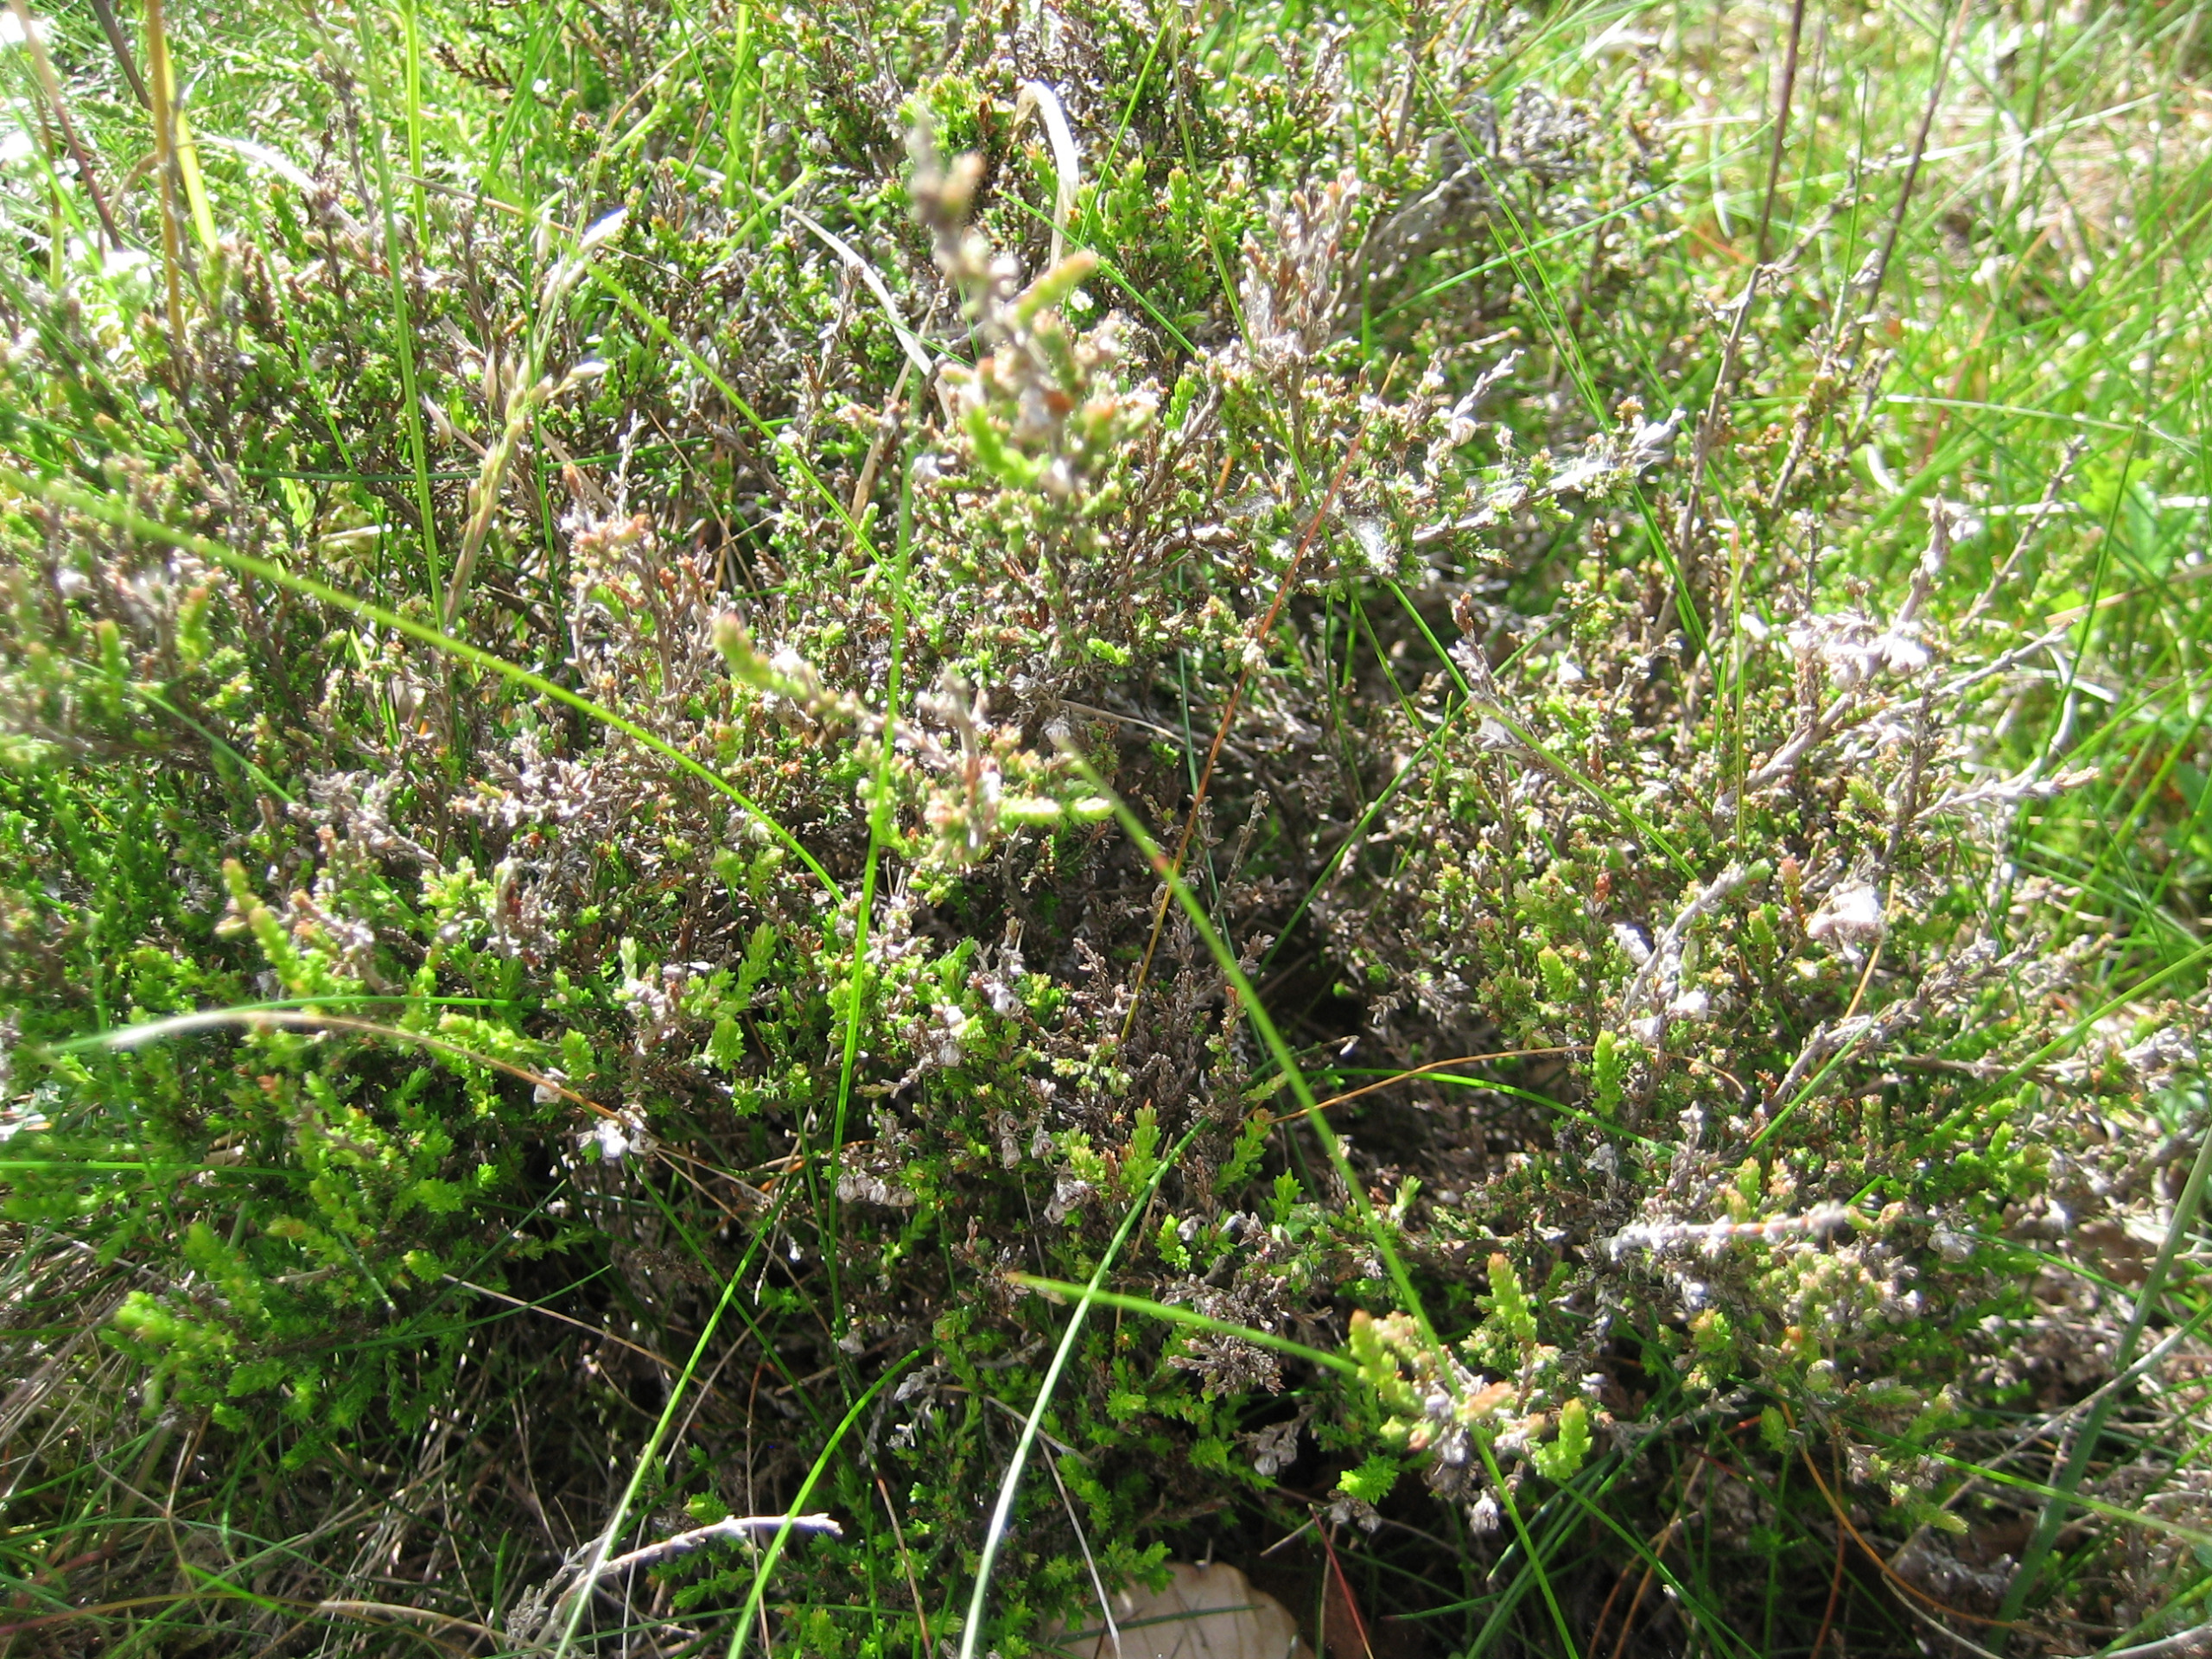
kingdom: Plantae
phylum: Tracheophyta
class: Magnoliopsida
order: Ericales
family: Ericaceae
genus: Calluna
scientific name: Calluna vulgaris
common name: Hedelyng
